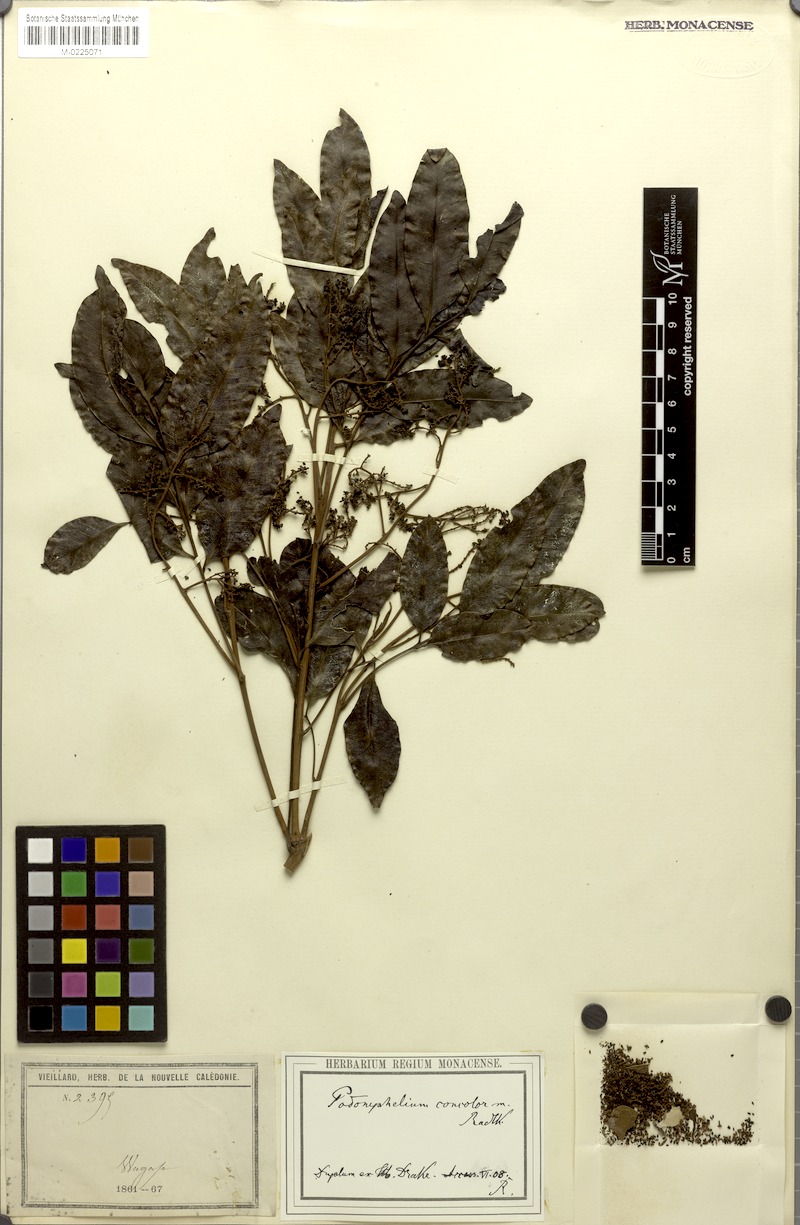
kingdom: Plantae
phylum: Tracheophyta
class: Magnoliopsida
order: Sapindales
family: Sapindaceae
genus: Podonephelium
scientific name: Podonephelium concolor
